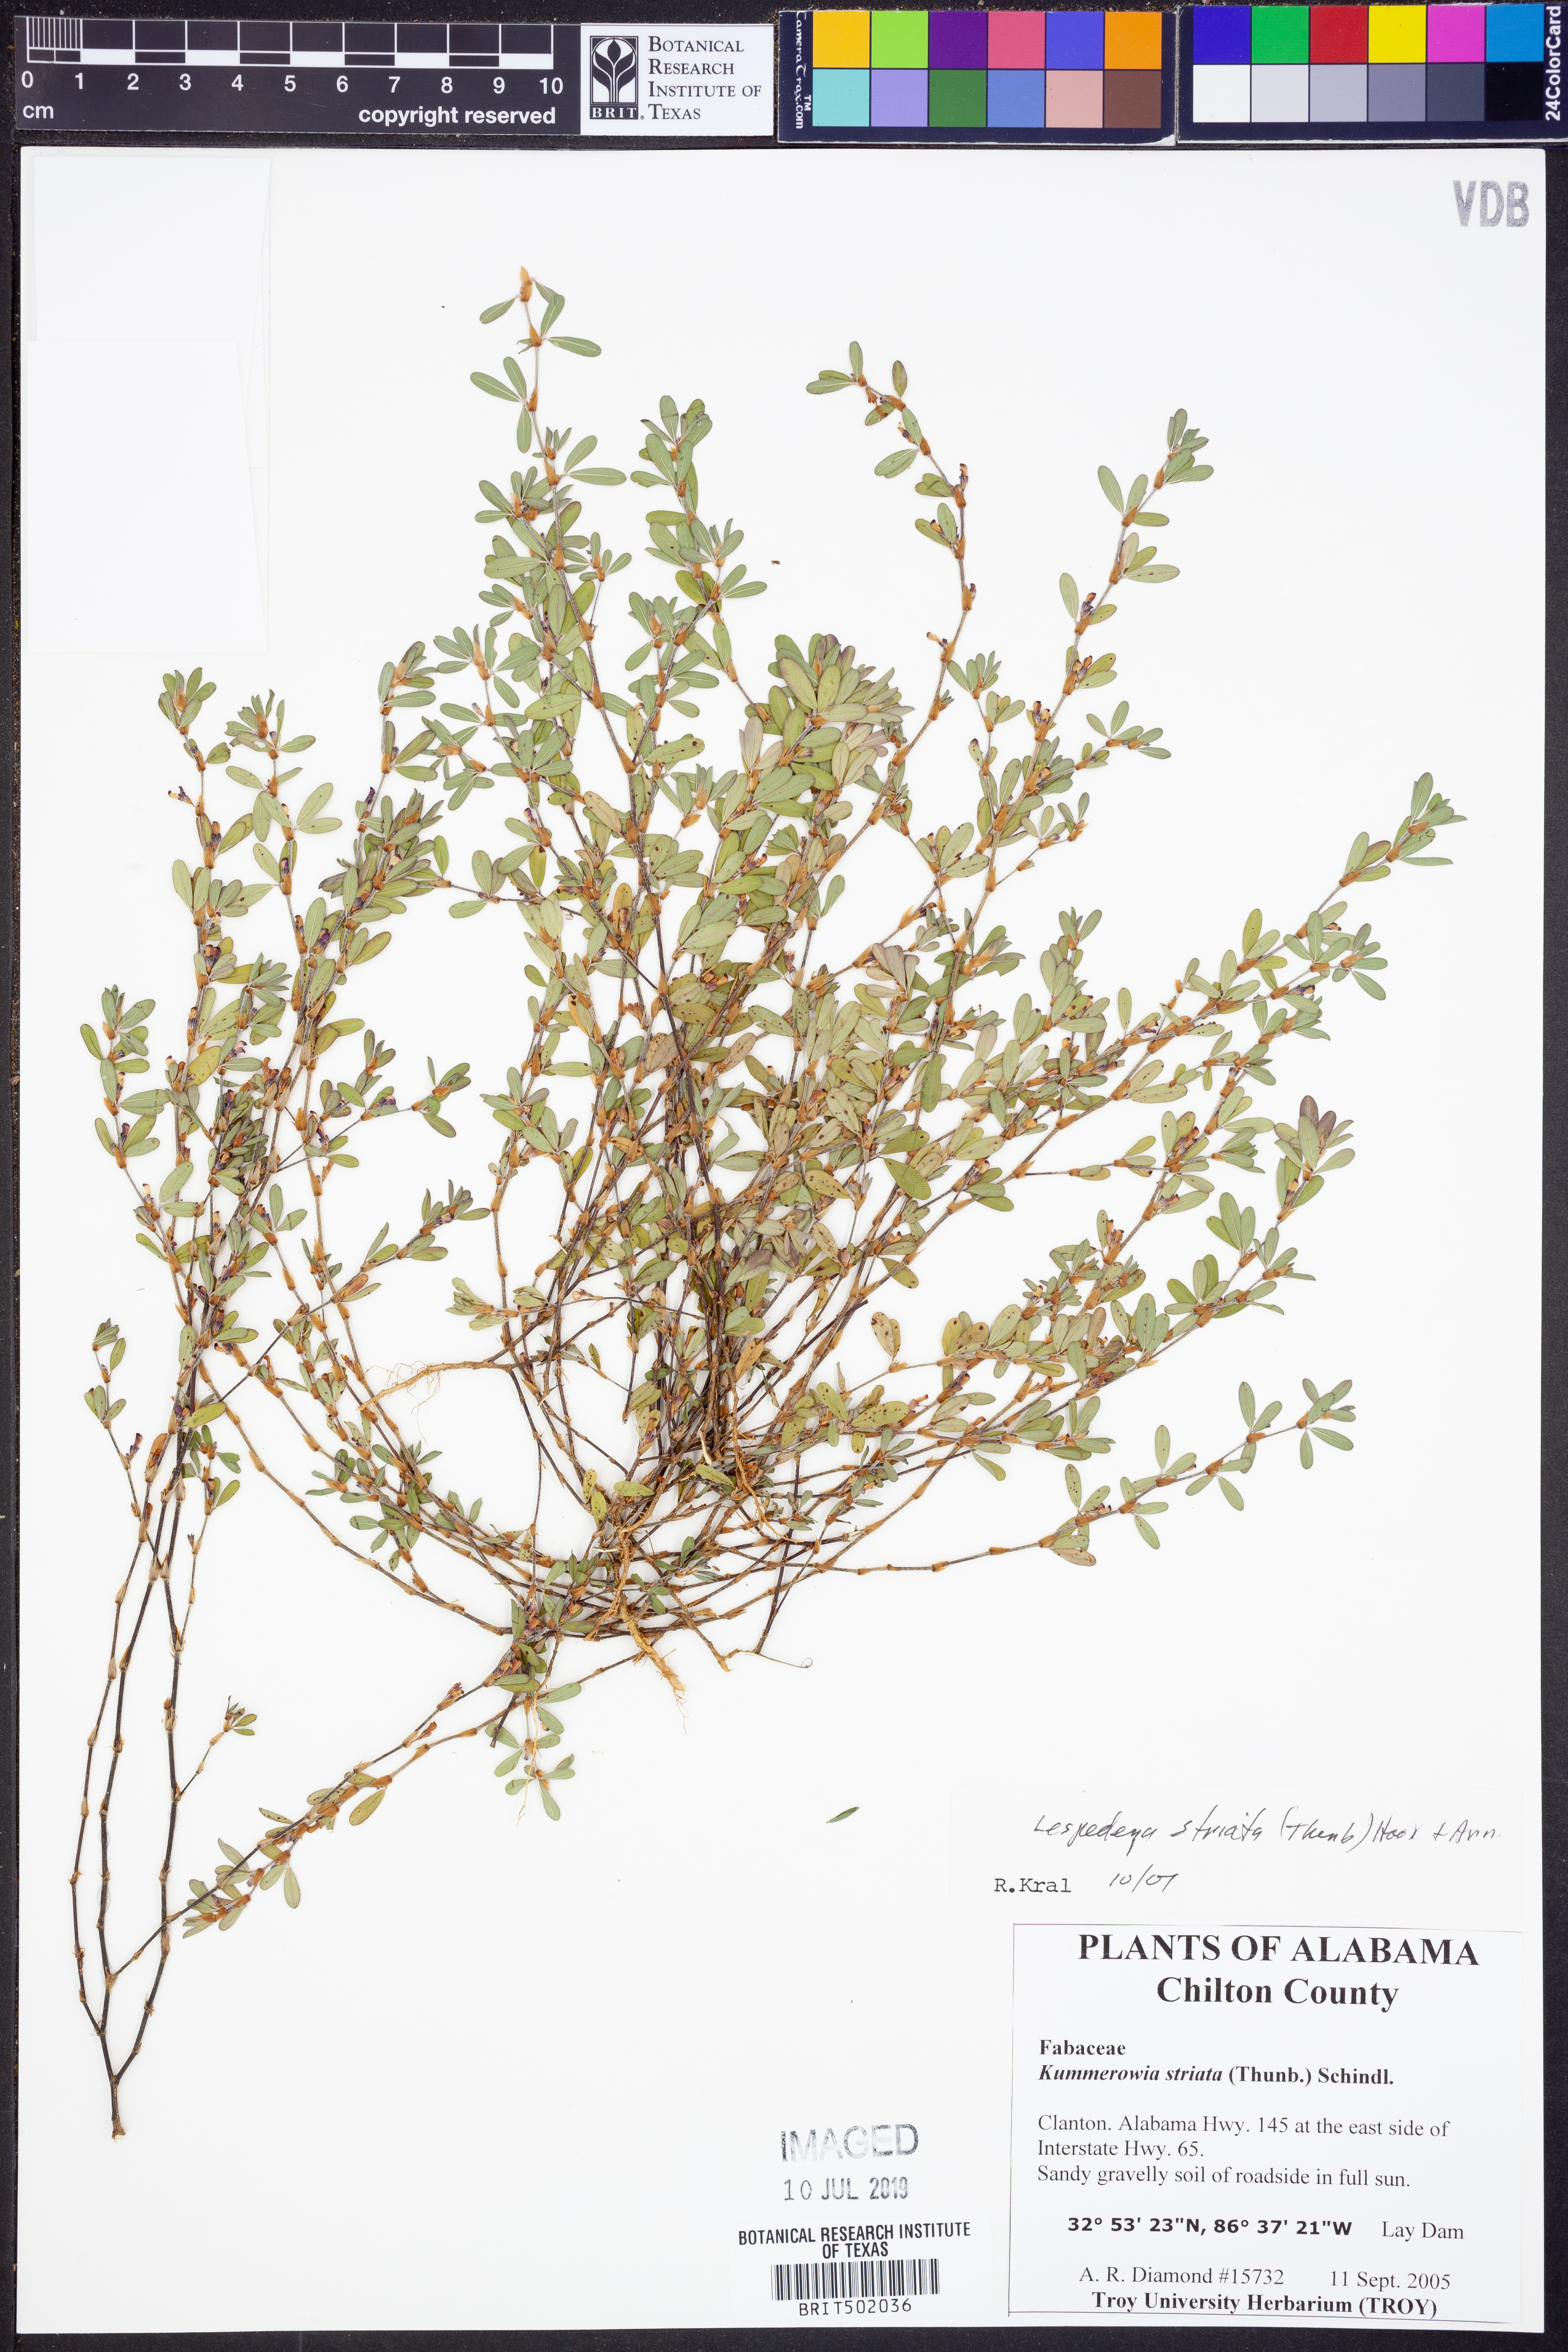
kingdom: Plantae
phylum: Tracheophyta
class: Magnoliopsida
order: Fabales
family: Fabaceae
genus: Kummerowia
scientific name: Kummerowia striata
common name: Japanese clover
